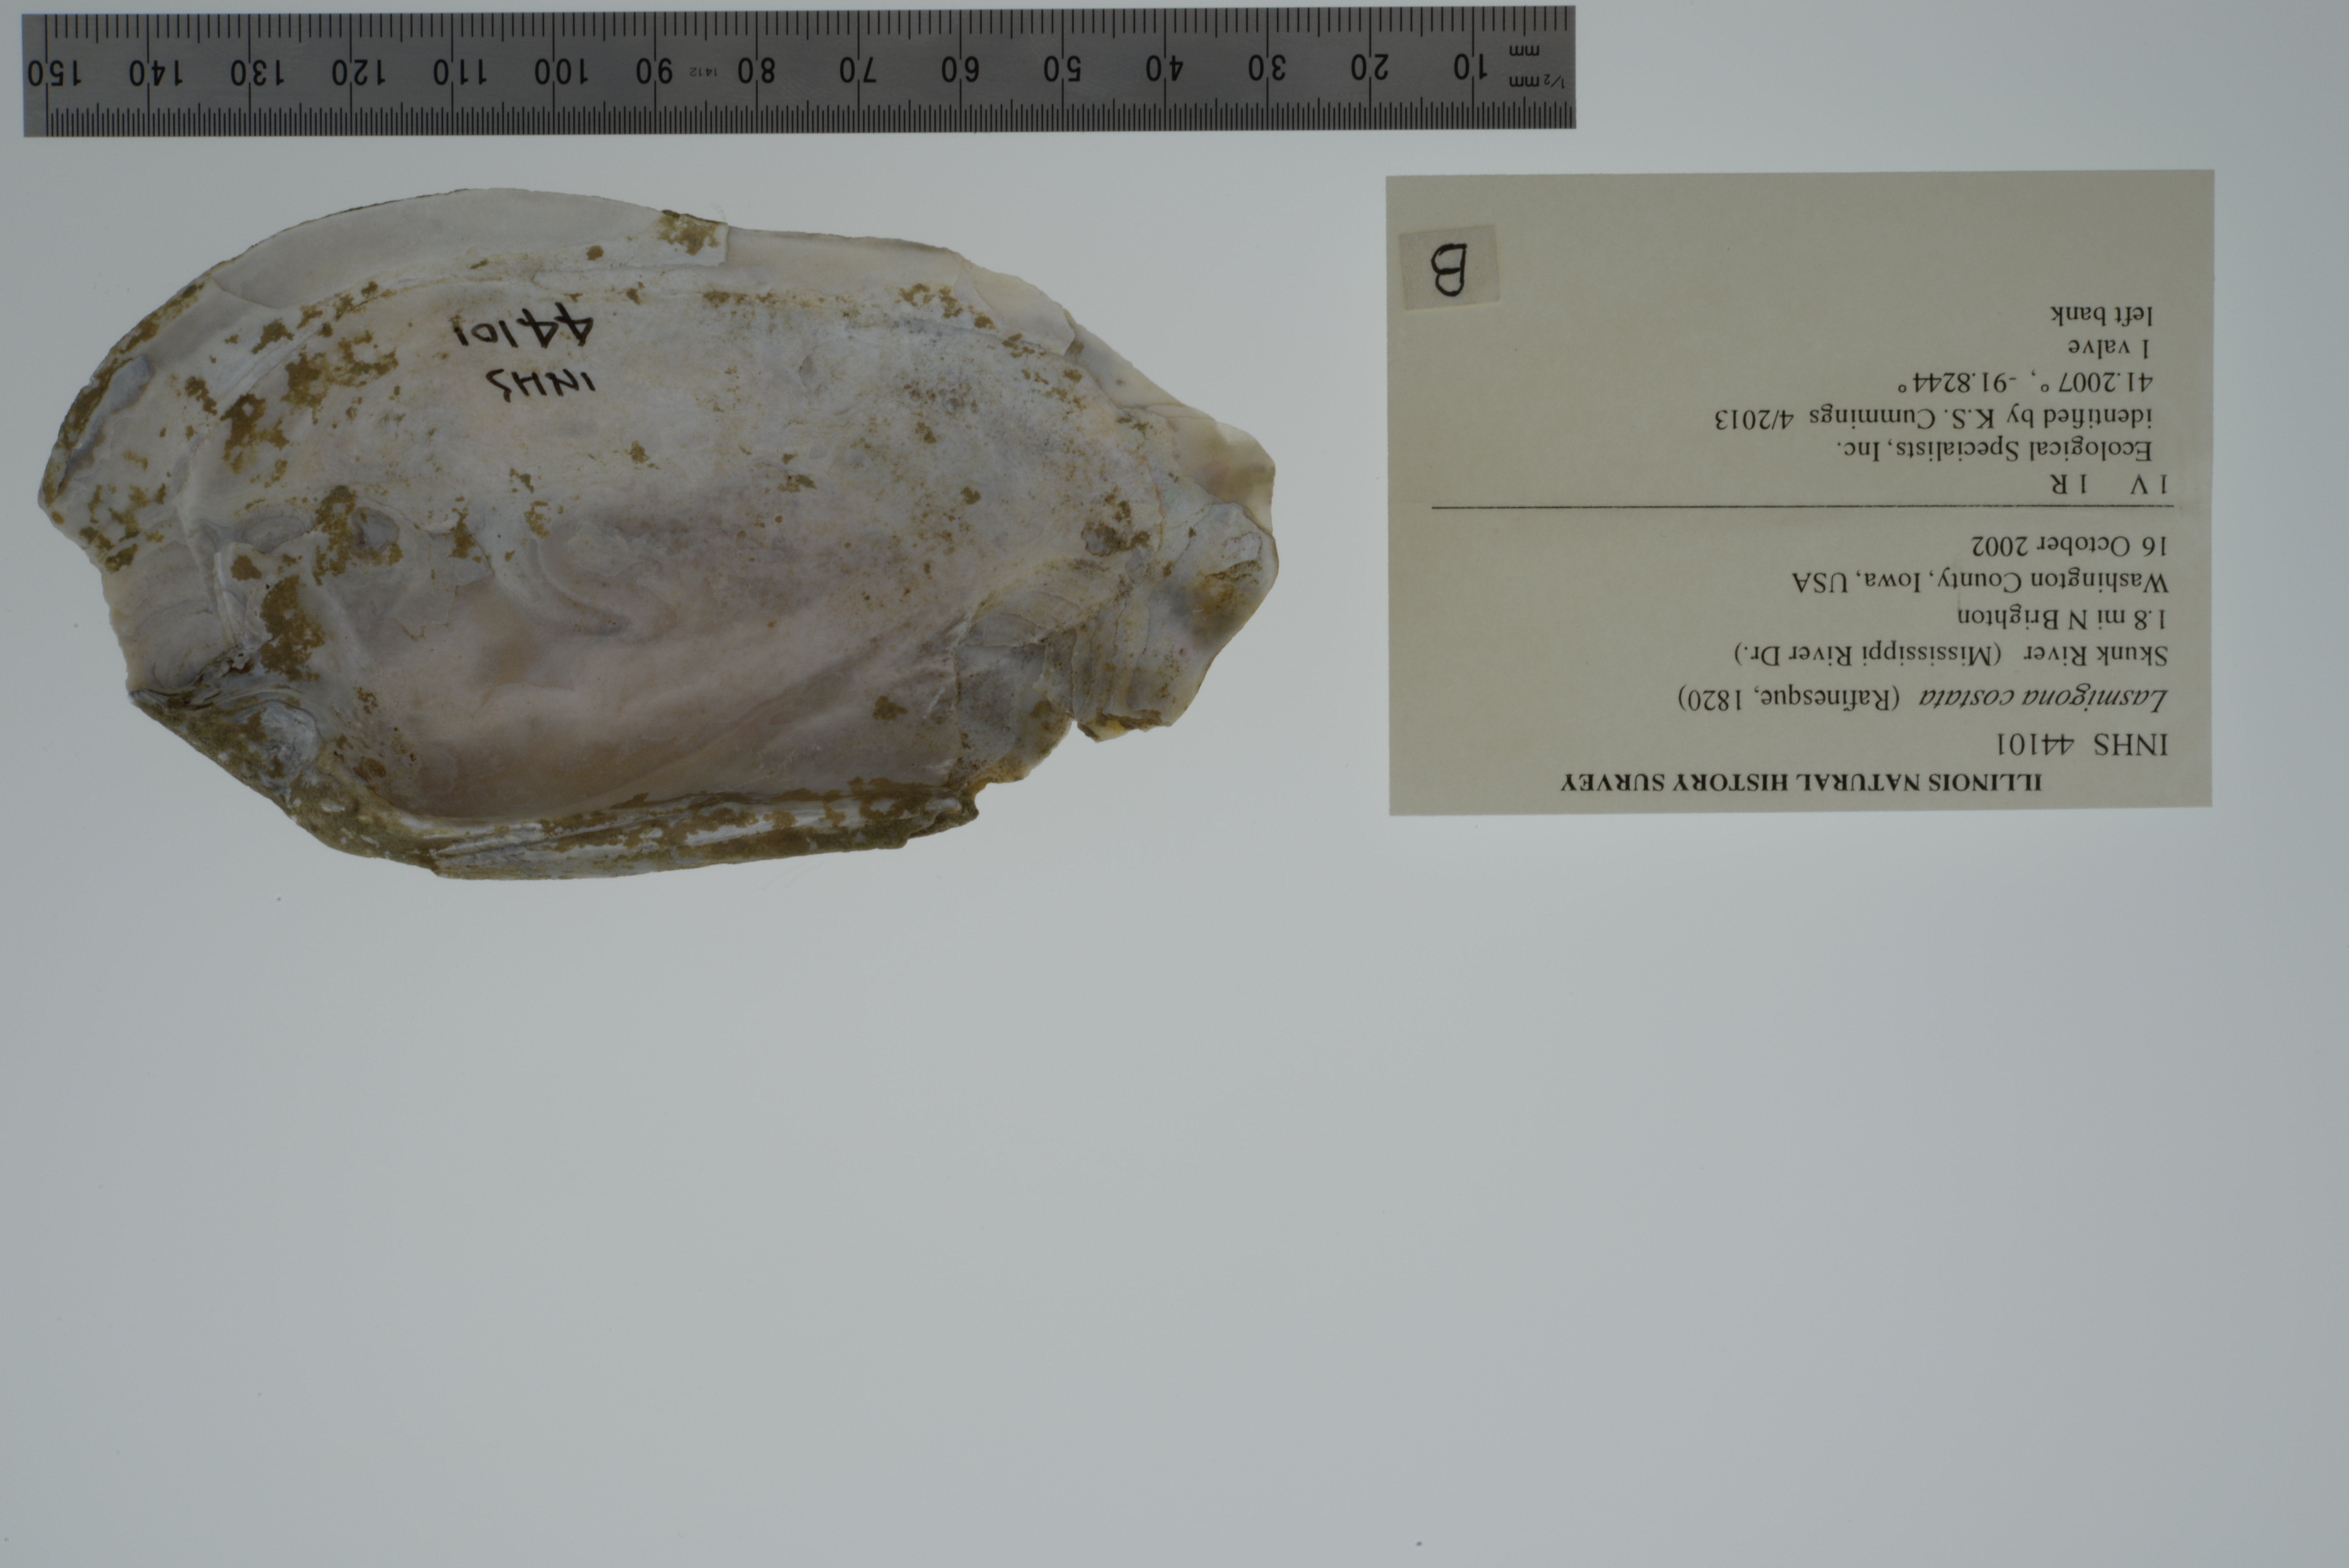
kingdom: Animalia
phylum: Mollusca
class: Bivalvia
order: Unionida
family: Unionidae
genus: Lasmigona
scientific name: Lasmigona costata
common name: Flutedshell
